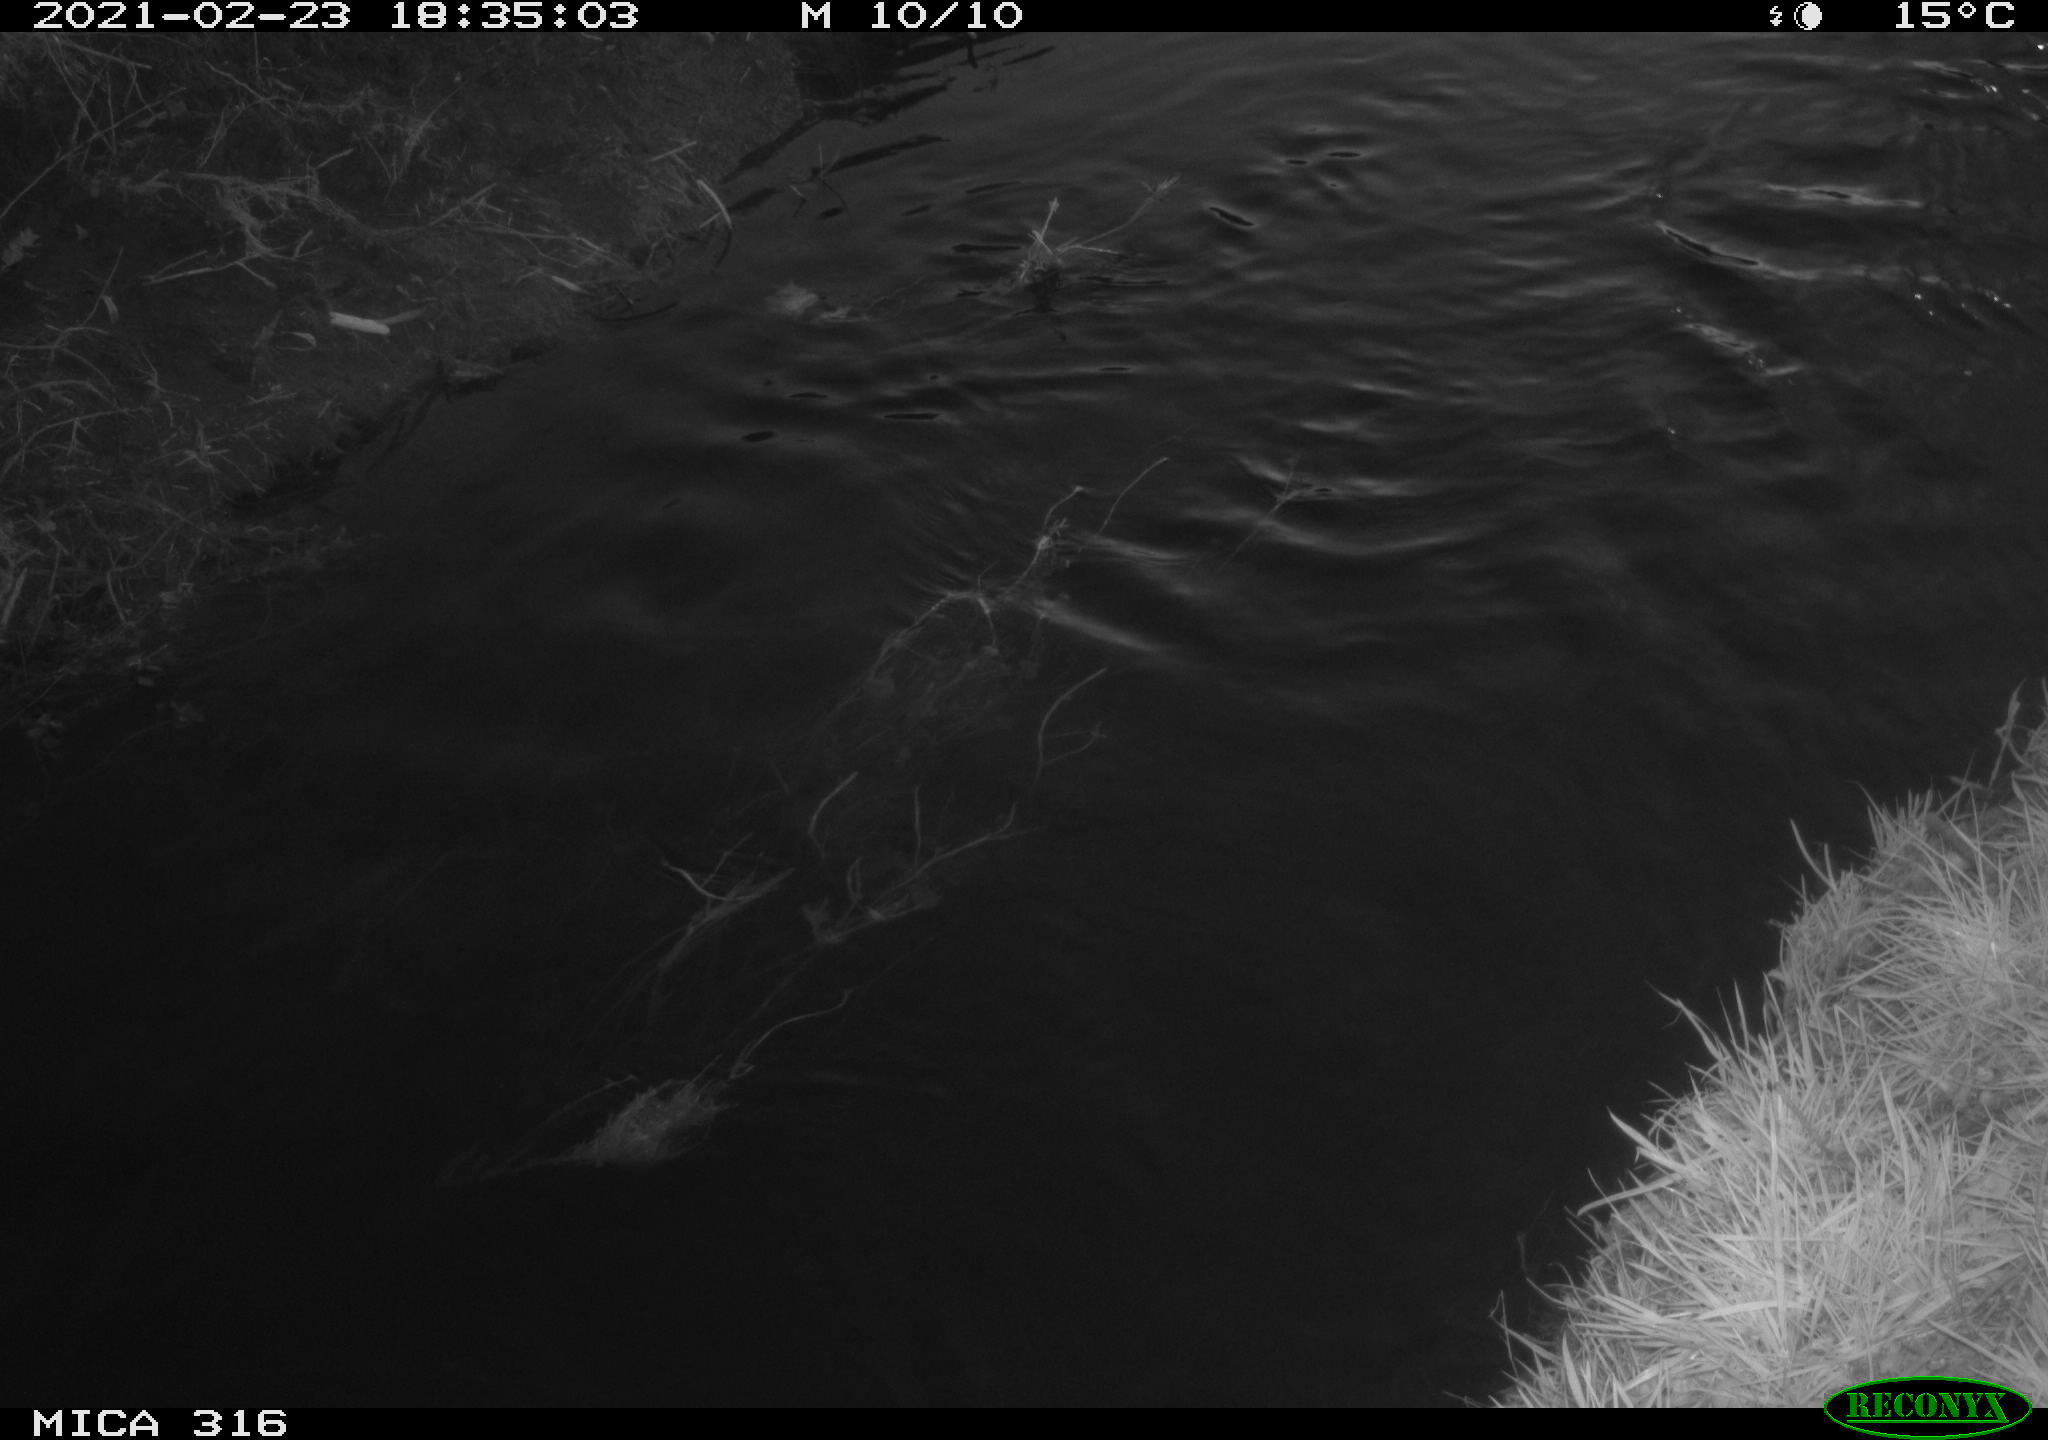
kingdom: Animalia
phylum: Chordata
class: Aves
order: Anseriformes
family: Anatidae
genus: Anas
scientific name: Anas platyrhynchos
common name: Mallard
